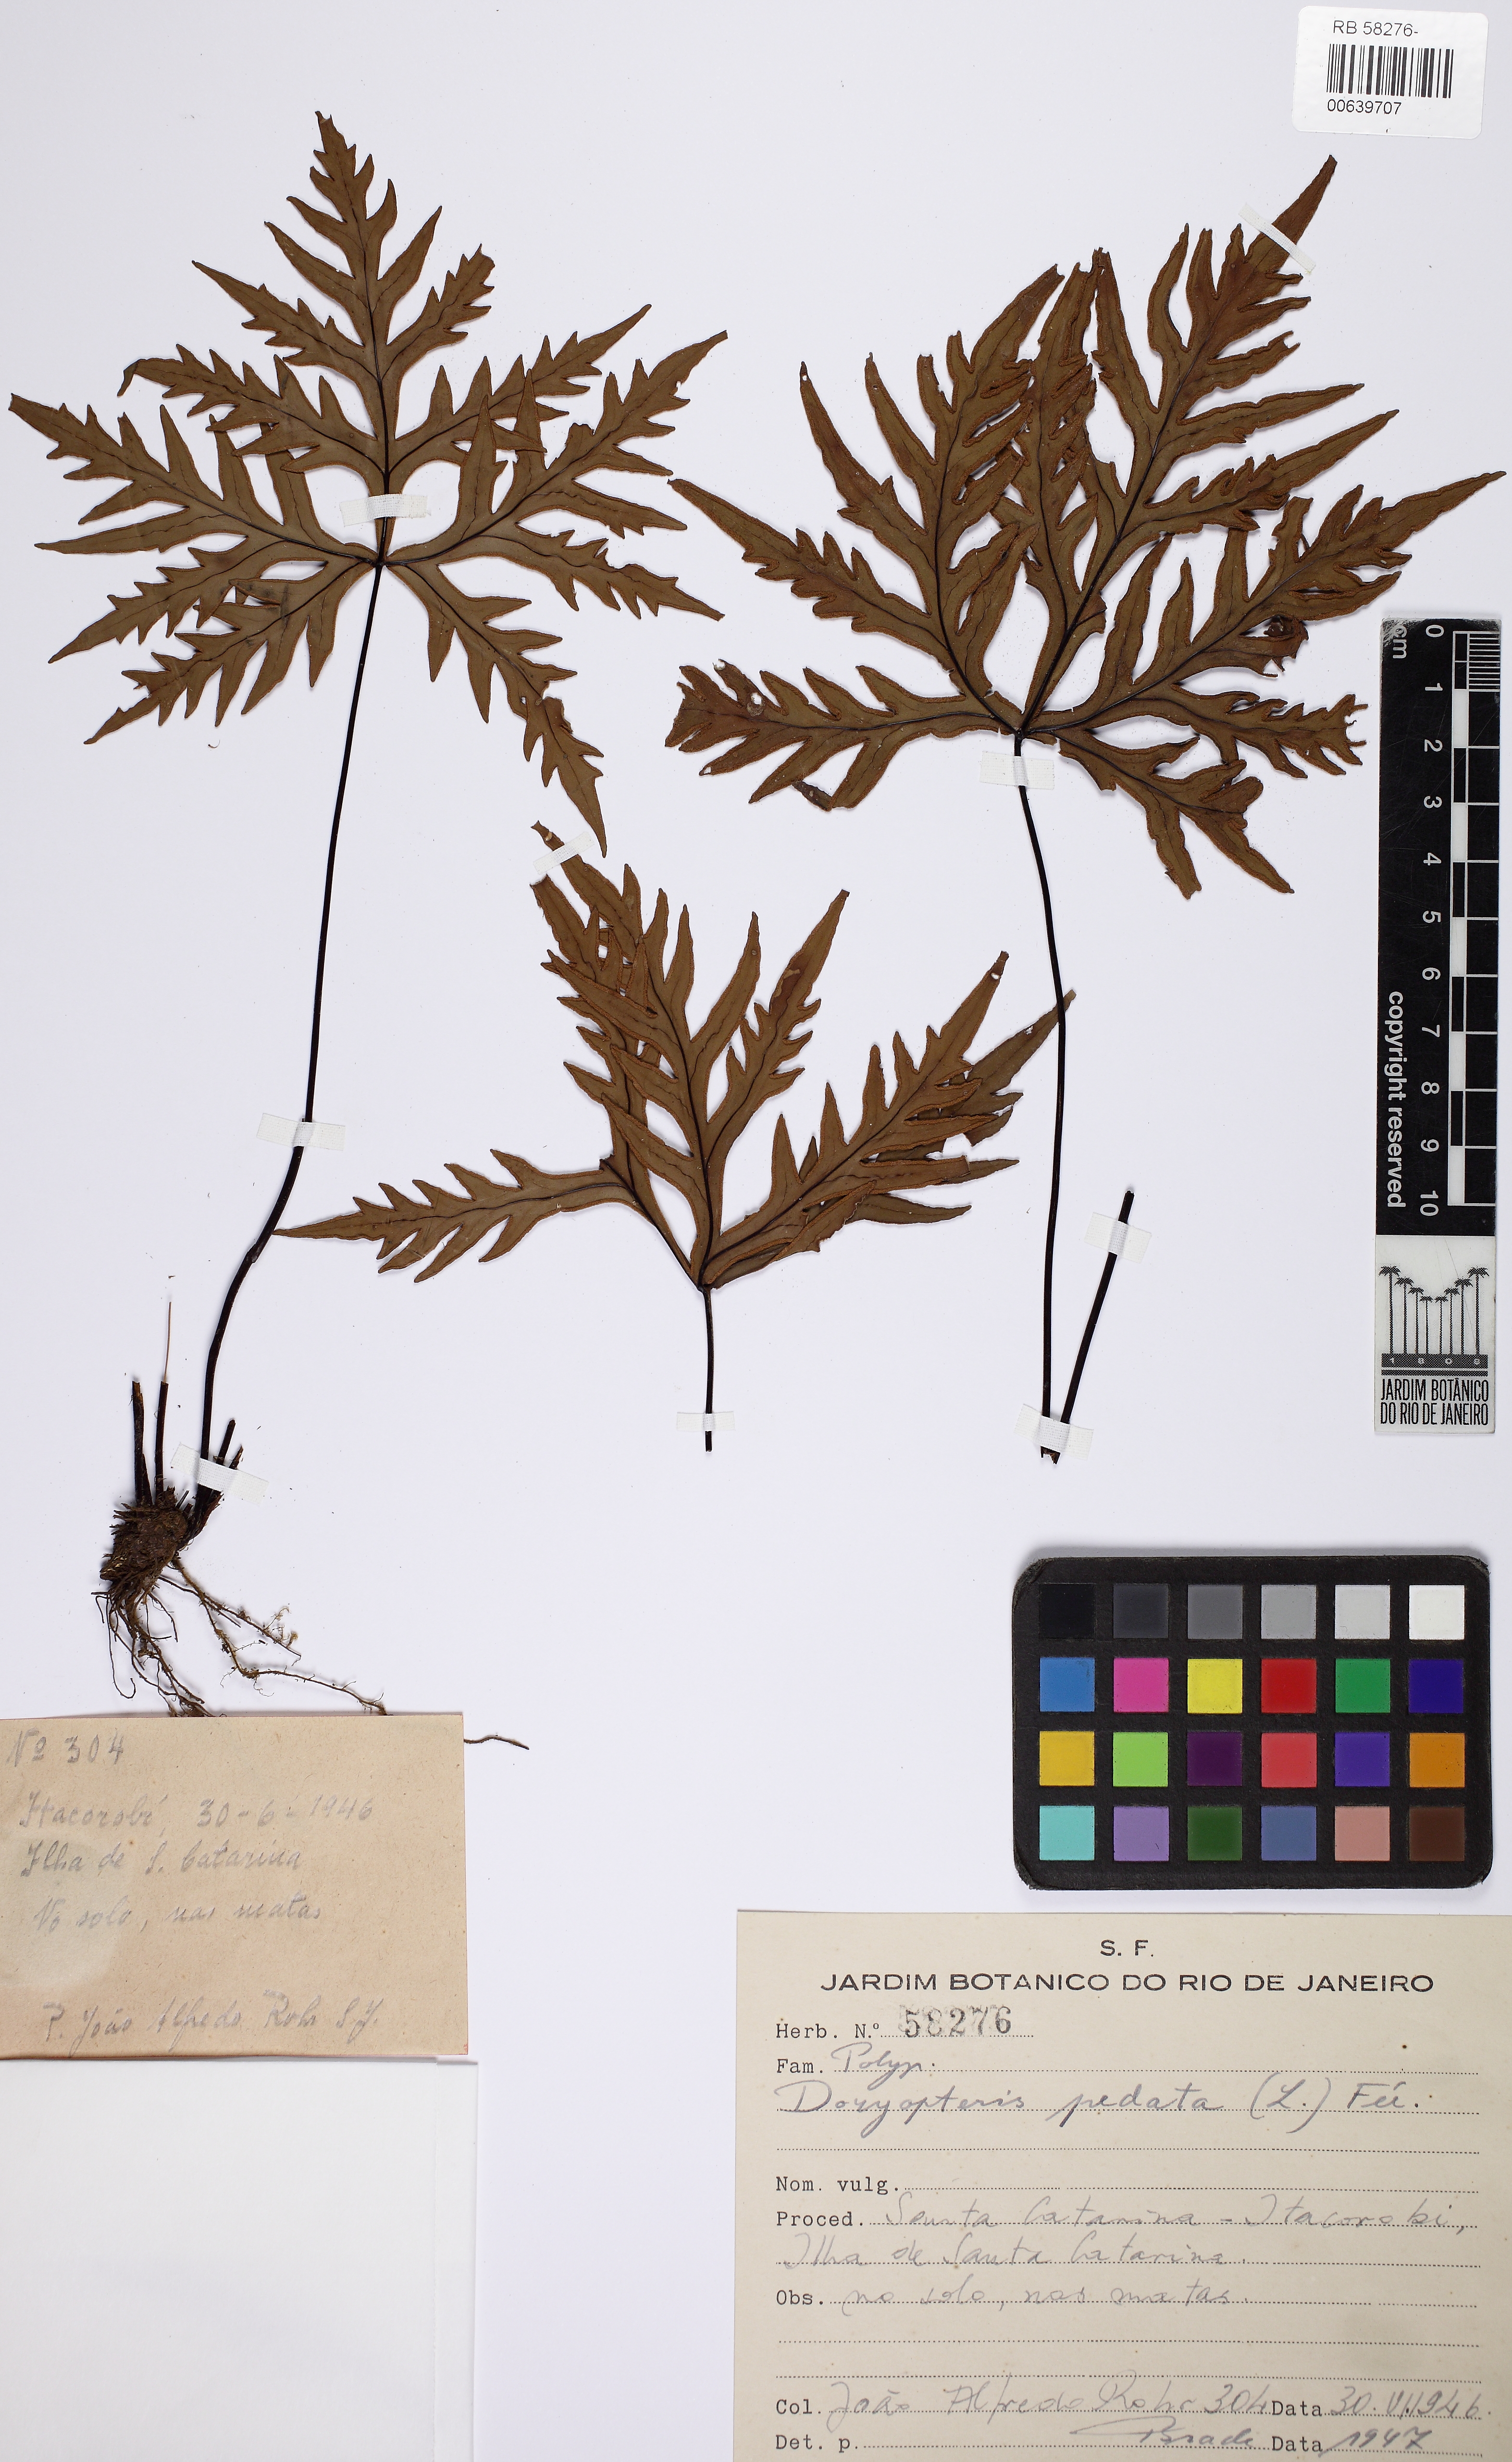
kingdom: Plantae
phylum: Tracheophyta
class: Polypodiopsida
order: Polypodiales
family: Pteridaceae
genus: Doryopteris
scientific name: Doryopteris pentagona
